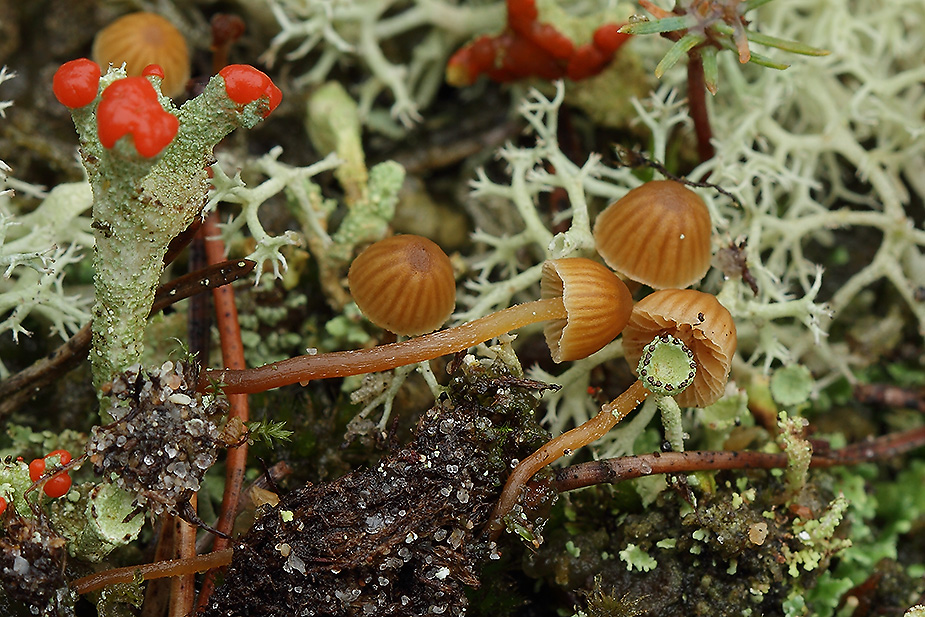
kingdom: Fungi
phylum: Basidiomycota
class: Agaricomycetes
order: Agaricales
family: Hymenogastraceae
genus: Galerina
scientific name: Galerina hypnorum
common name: mos-hjelmhat
